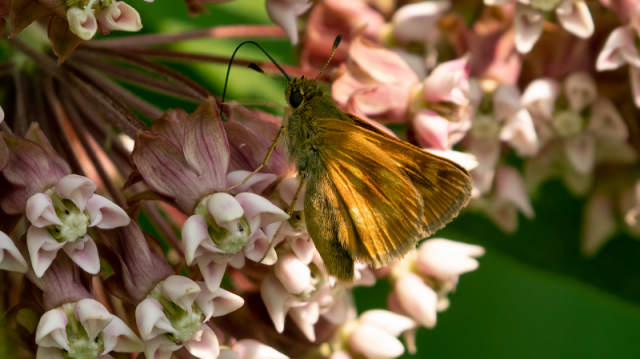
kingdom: Animalia
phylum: Arthropoda
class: Insecta
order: Lepidoptera
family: Hesperiidae
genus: Polites
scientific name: Polites
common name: Long Dash Skipper
